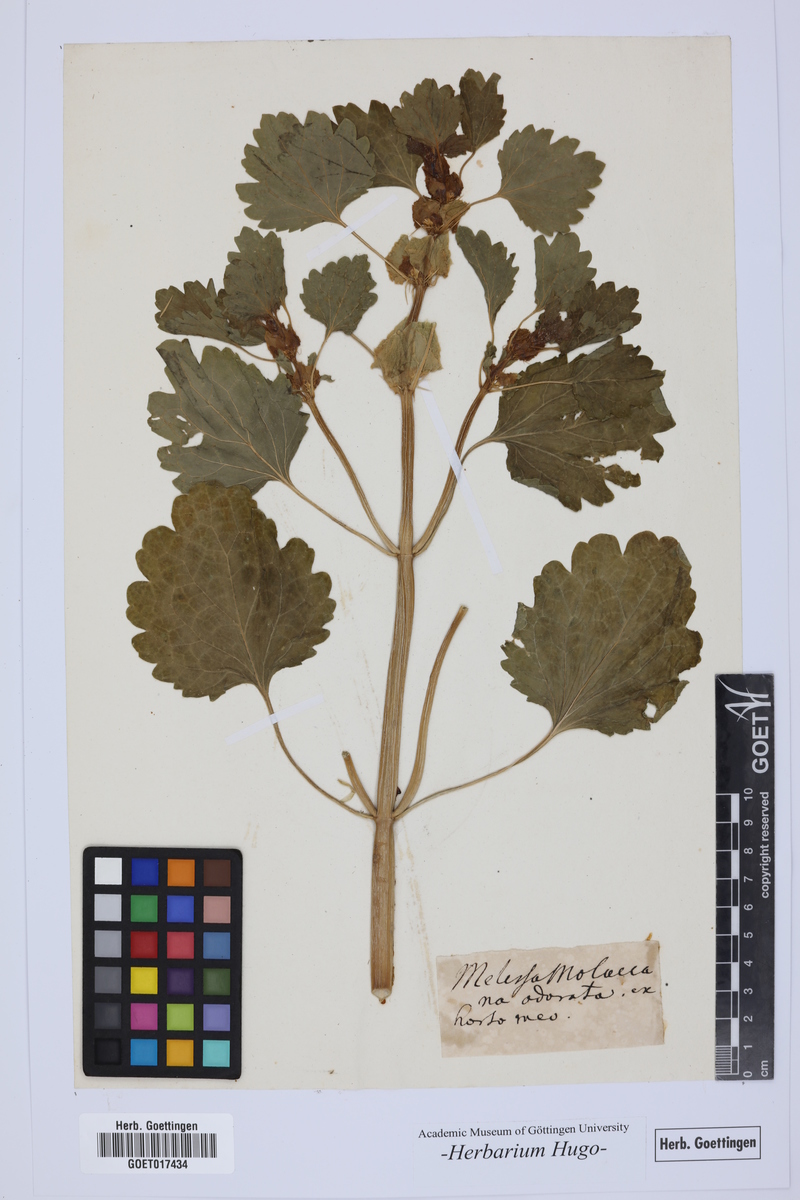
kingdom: Plantae
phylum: Tracheophyta
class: Magnoliopsida
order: Lamiales
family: Lamiaceae
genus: Moluccella
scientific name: Moluccella laevis
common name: Shellflower
